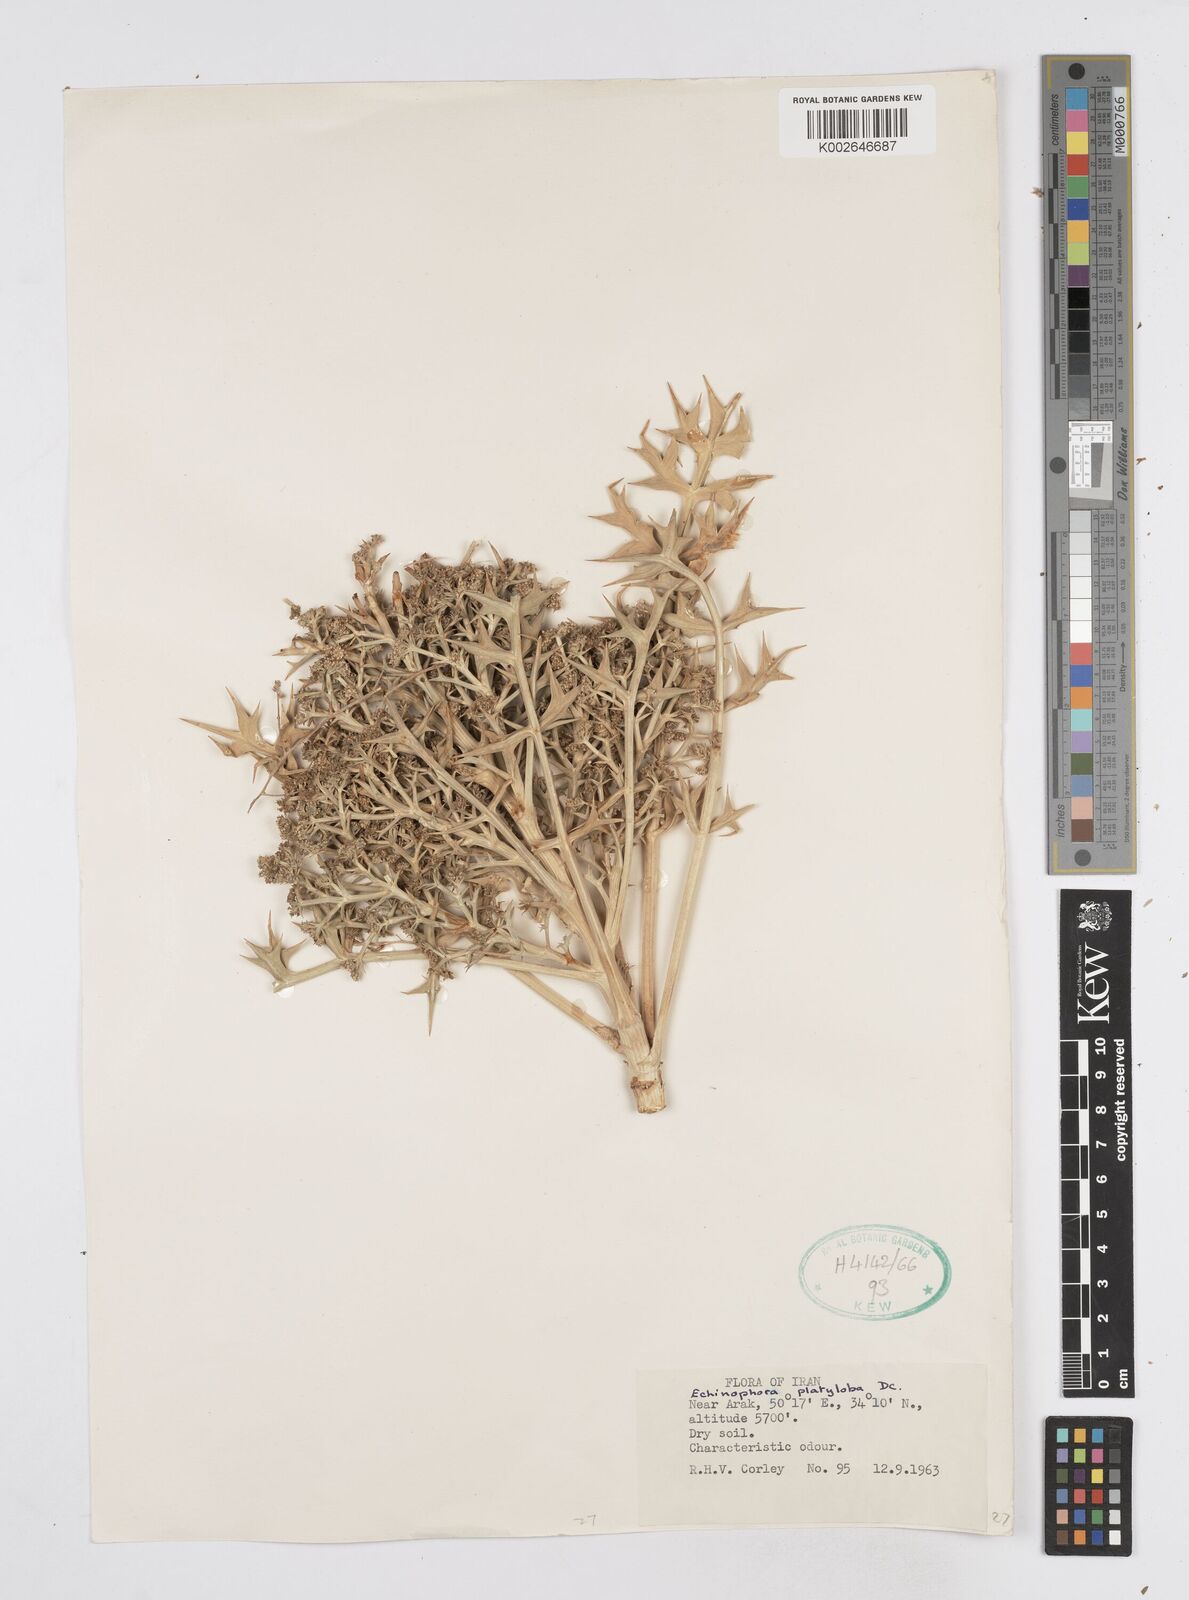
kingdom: Plantae
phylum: Tracheophyta
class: Magnoliopsida
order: Apiales
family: Apiaceae
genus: Echinophora
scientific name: Echinophora platyloba
